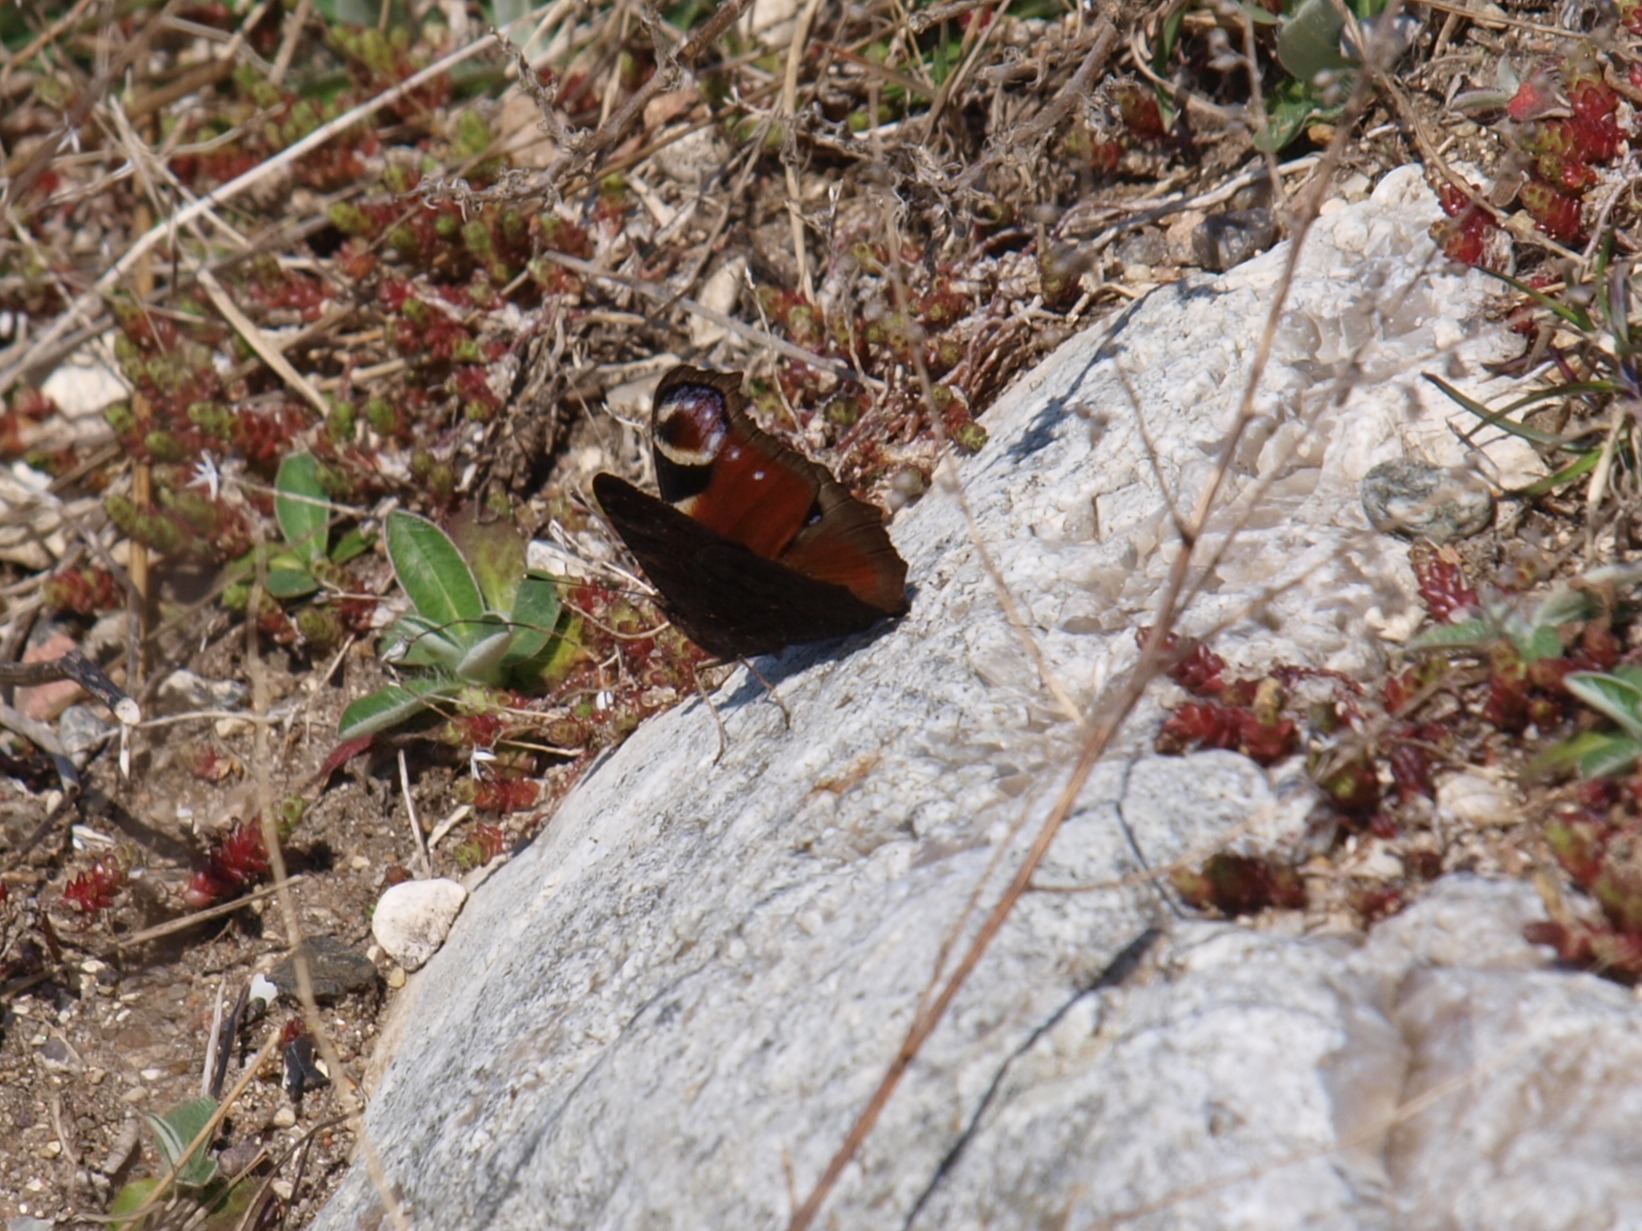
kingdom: Animalia
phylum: Arthropoda
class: Insecta
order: Lepidoptera
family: Nymphalidae
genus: Aglais
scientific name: Aglais io
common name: Dagpåfugleøje
